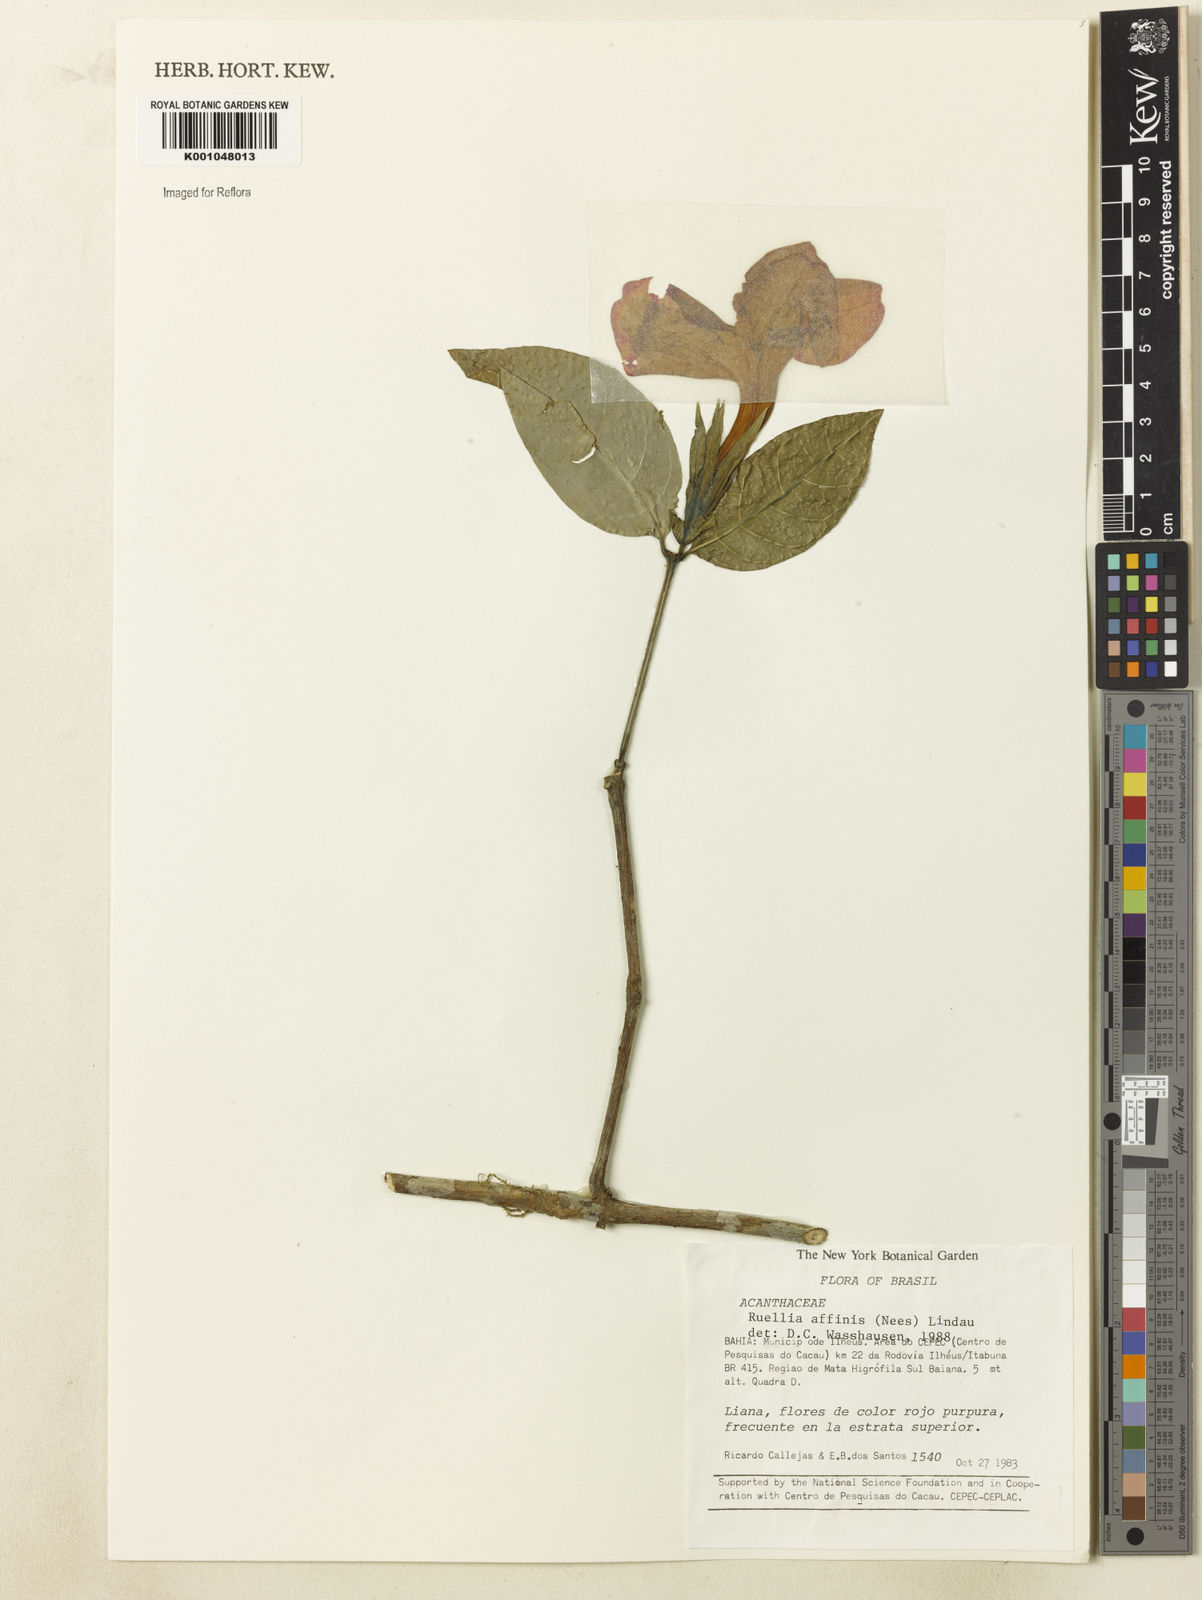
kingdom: Plantae
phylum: Tracheophyta
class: Magnoliopsida
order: Lamiales
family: Acanthaceae
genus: Ruellia
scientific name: Ruellia adenocalyx
